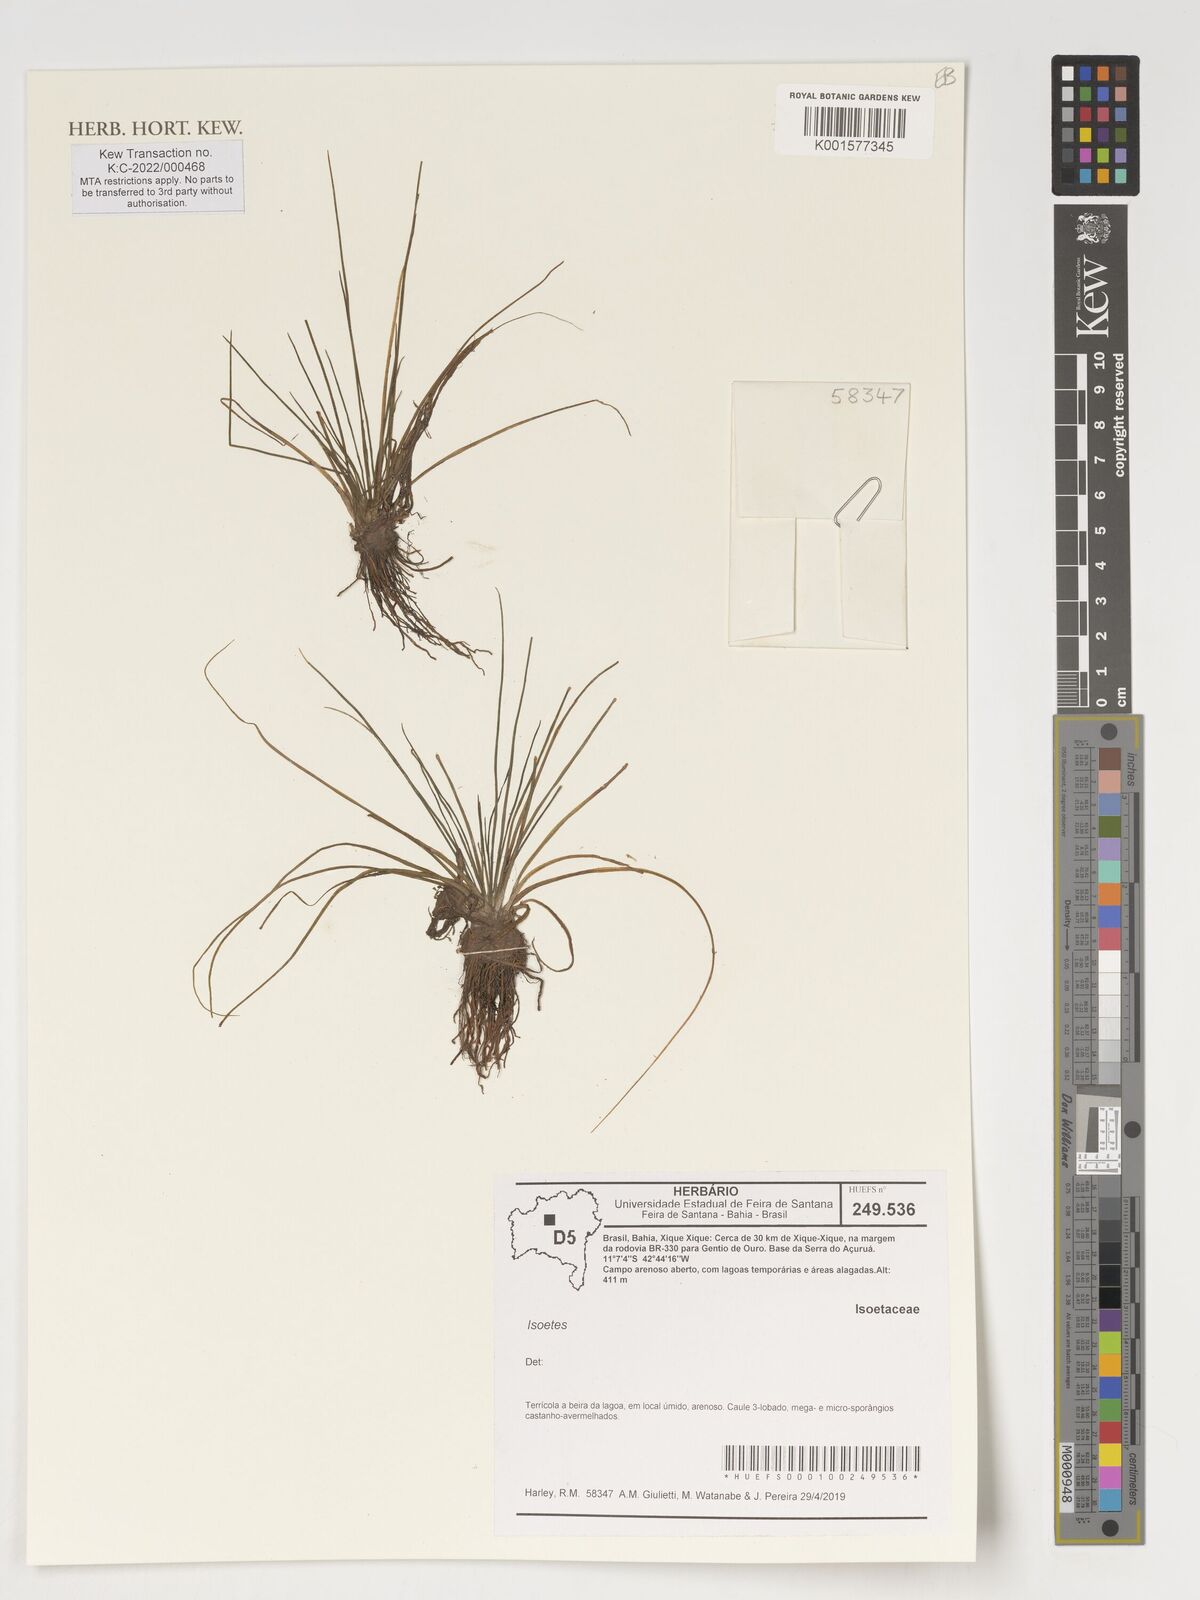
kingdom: Plantae
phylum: Tracheophyta
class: Lycopodiopsida
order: Isoetales
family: Isoetaceae
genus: Isoetes
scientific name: Isoetes
